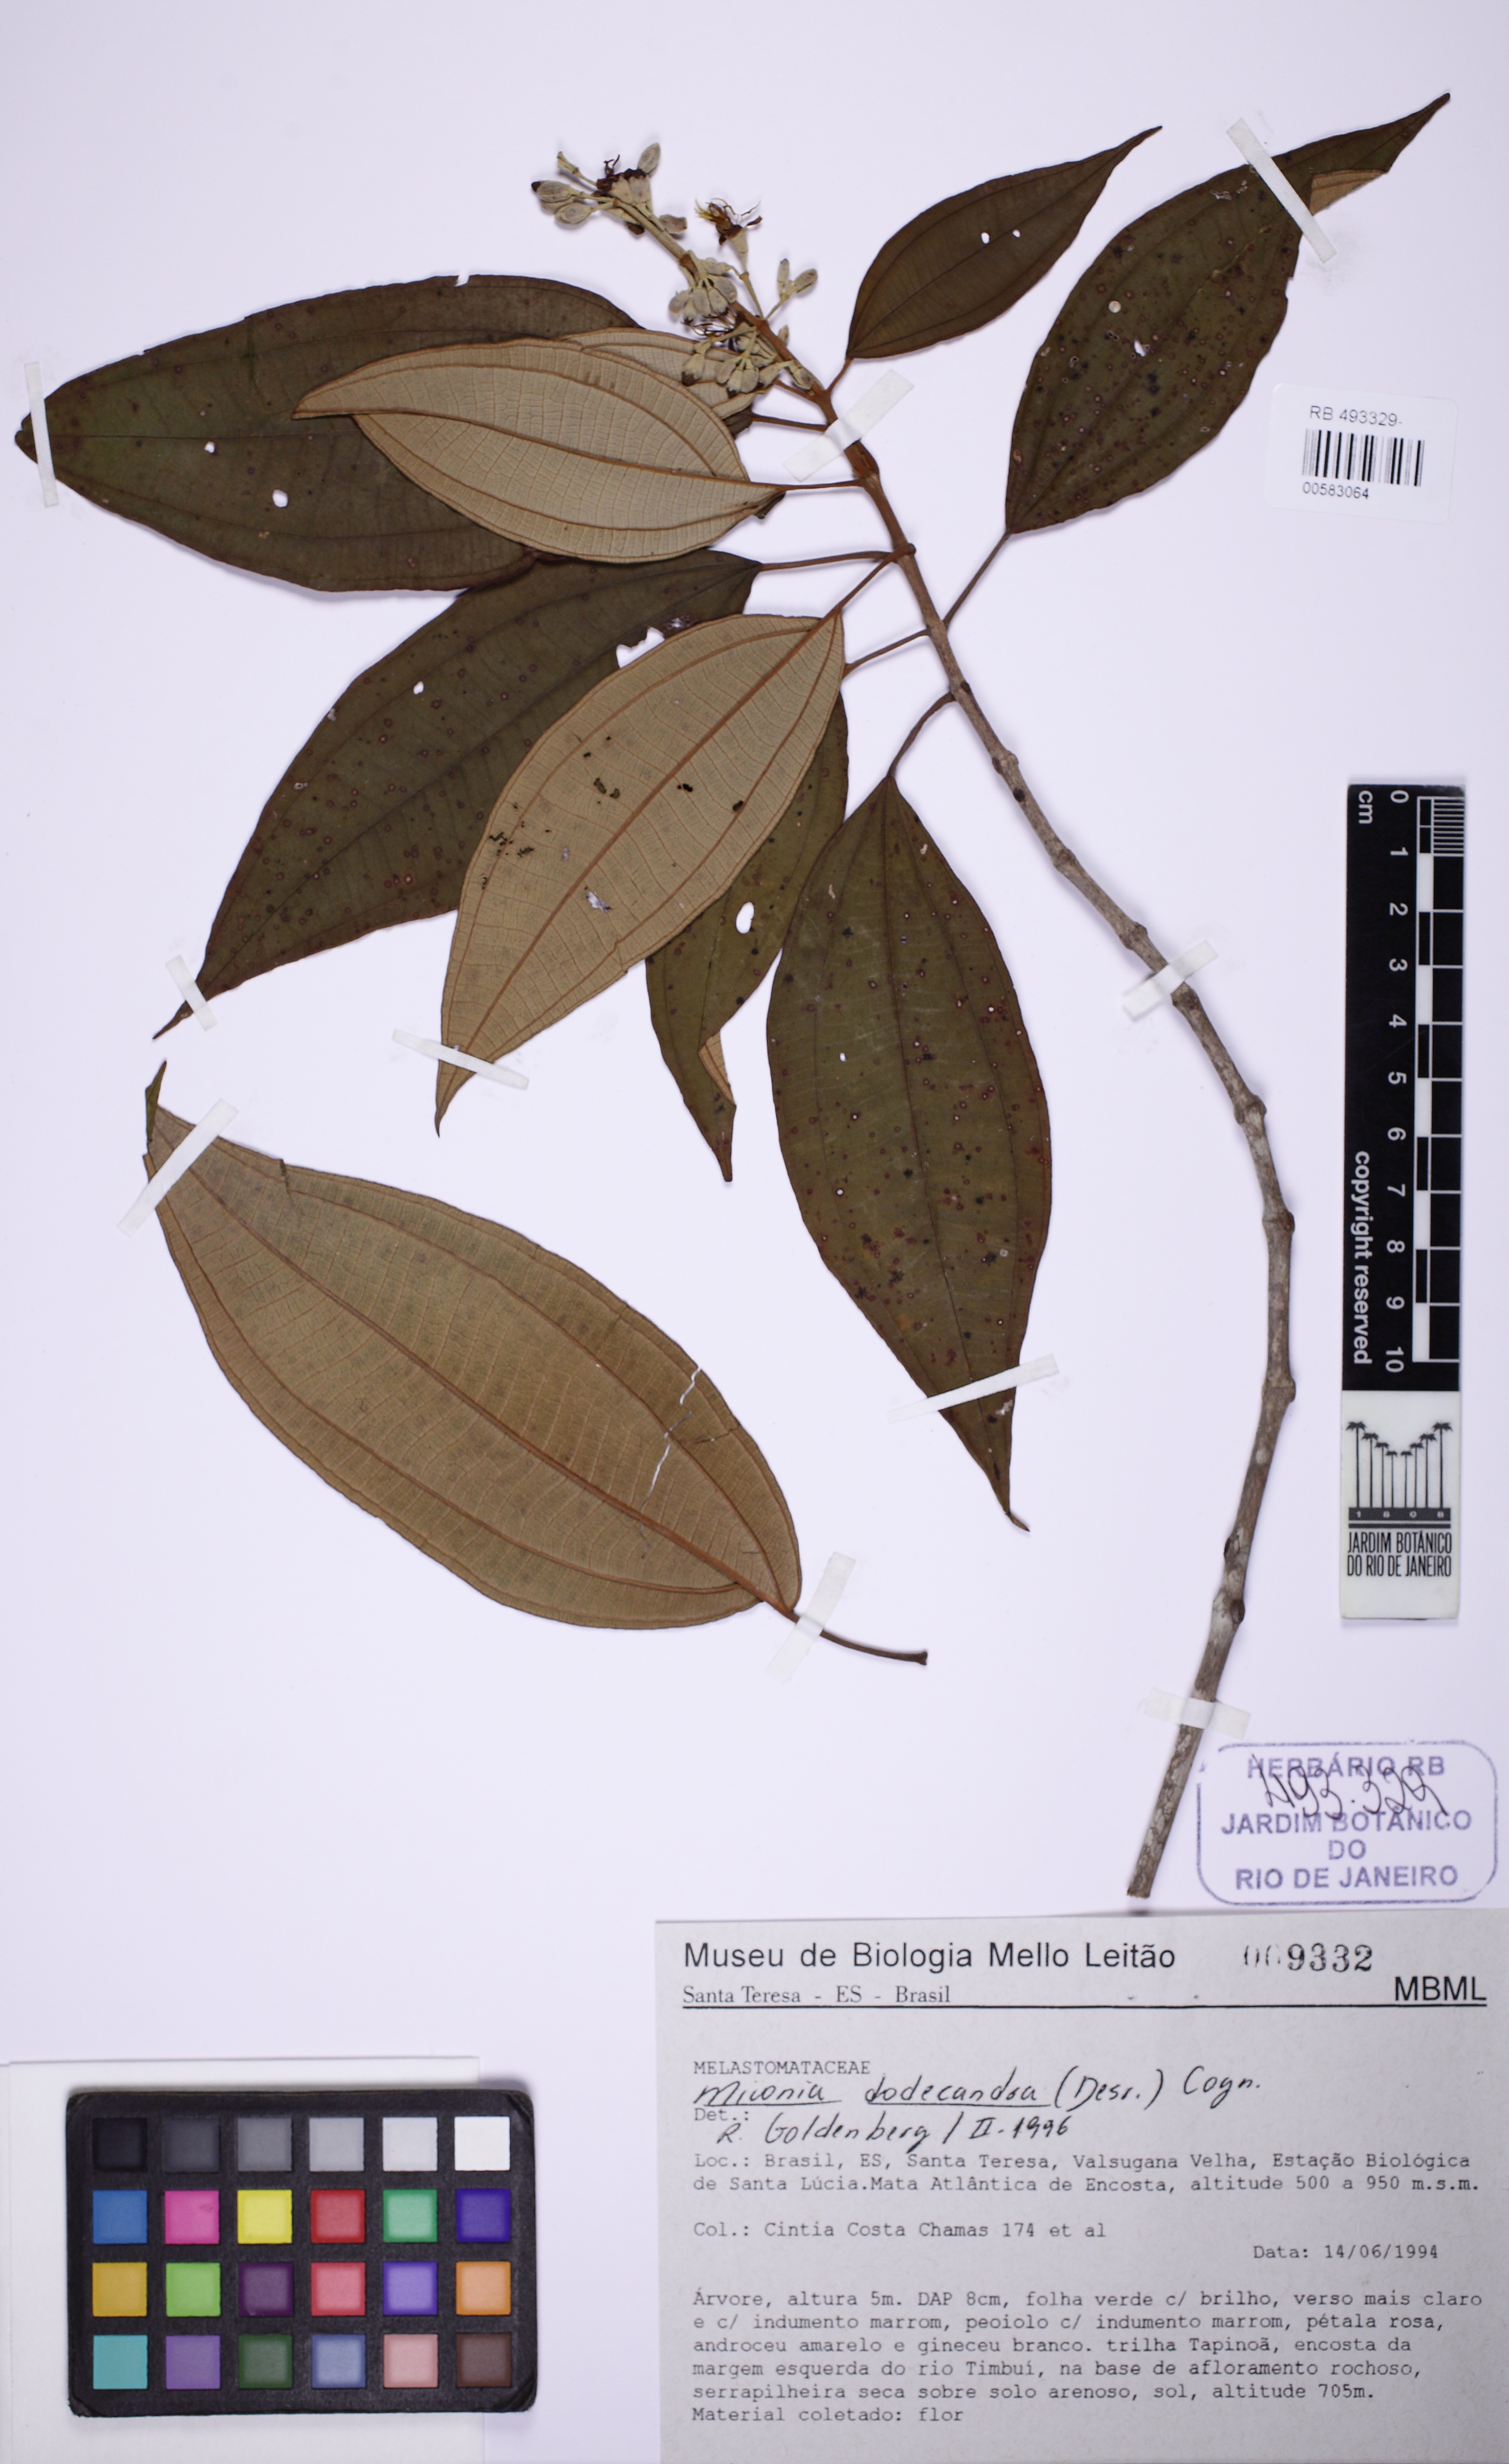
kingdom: Plantae
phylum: Tracheophyta
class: Magnoliopsida
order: Myrtales
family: Melastomataceae
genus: Miconia
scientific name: Miconia dodecandra
